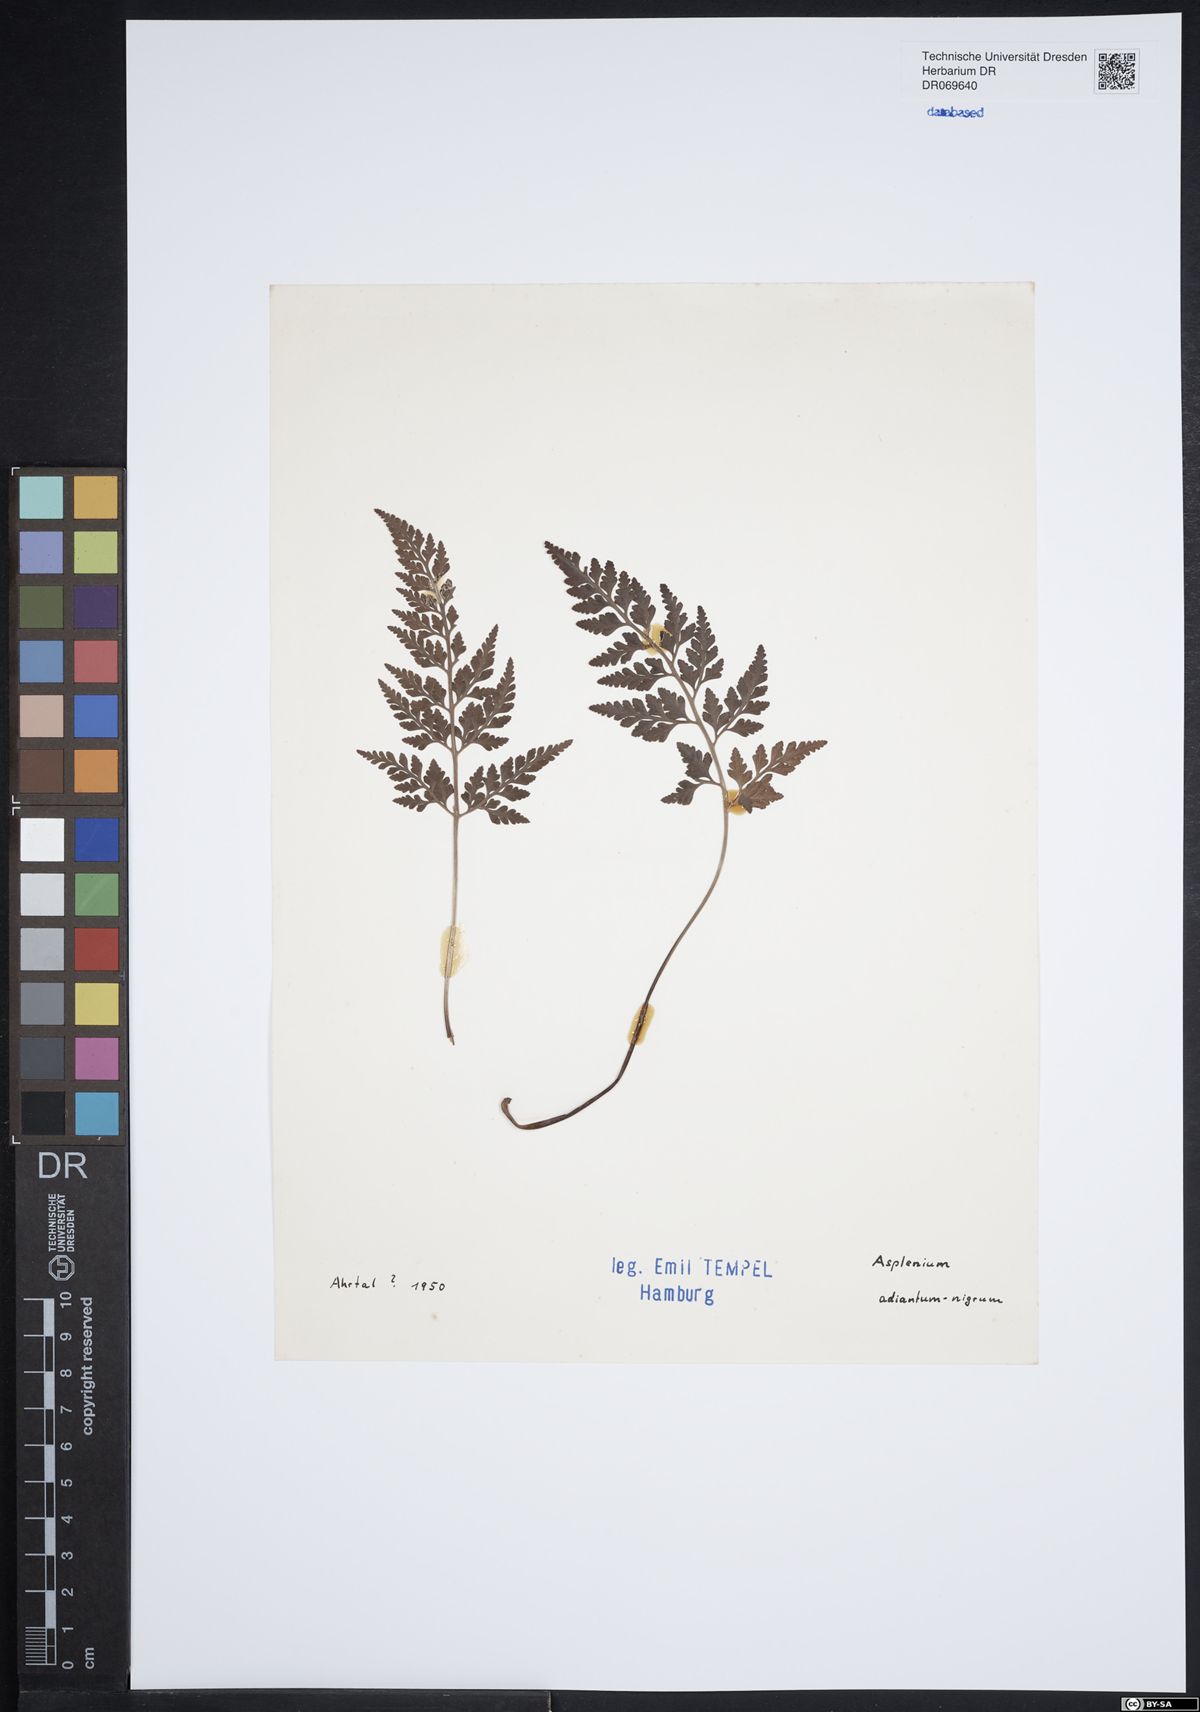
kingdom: Plantae
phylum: Tracheophyta
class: Polypodiopsida
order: Polypodiales
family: Aspleniaceae
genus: Asplenium
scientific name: Asplenium adiantum-nigrum
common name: Black spleenwort
